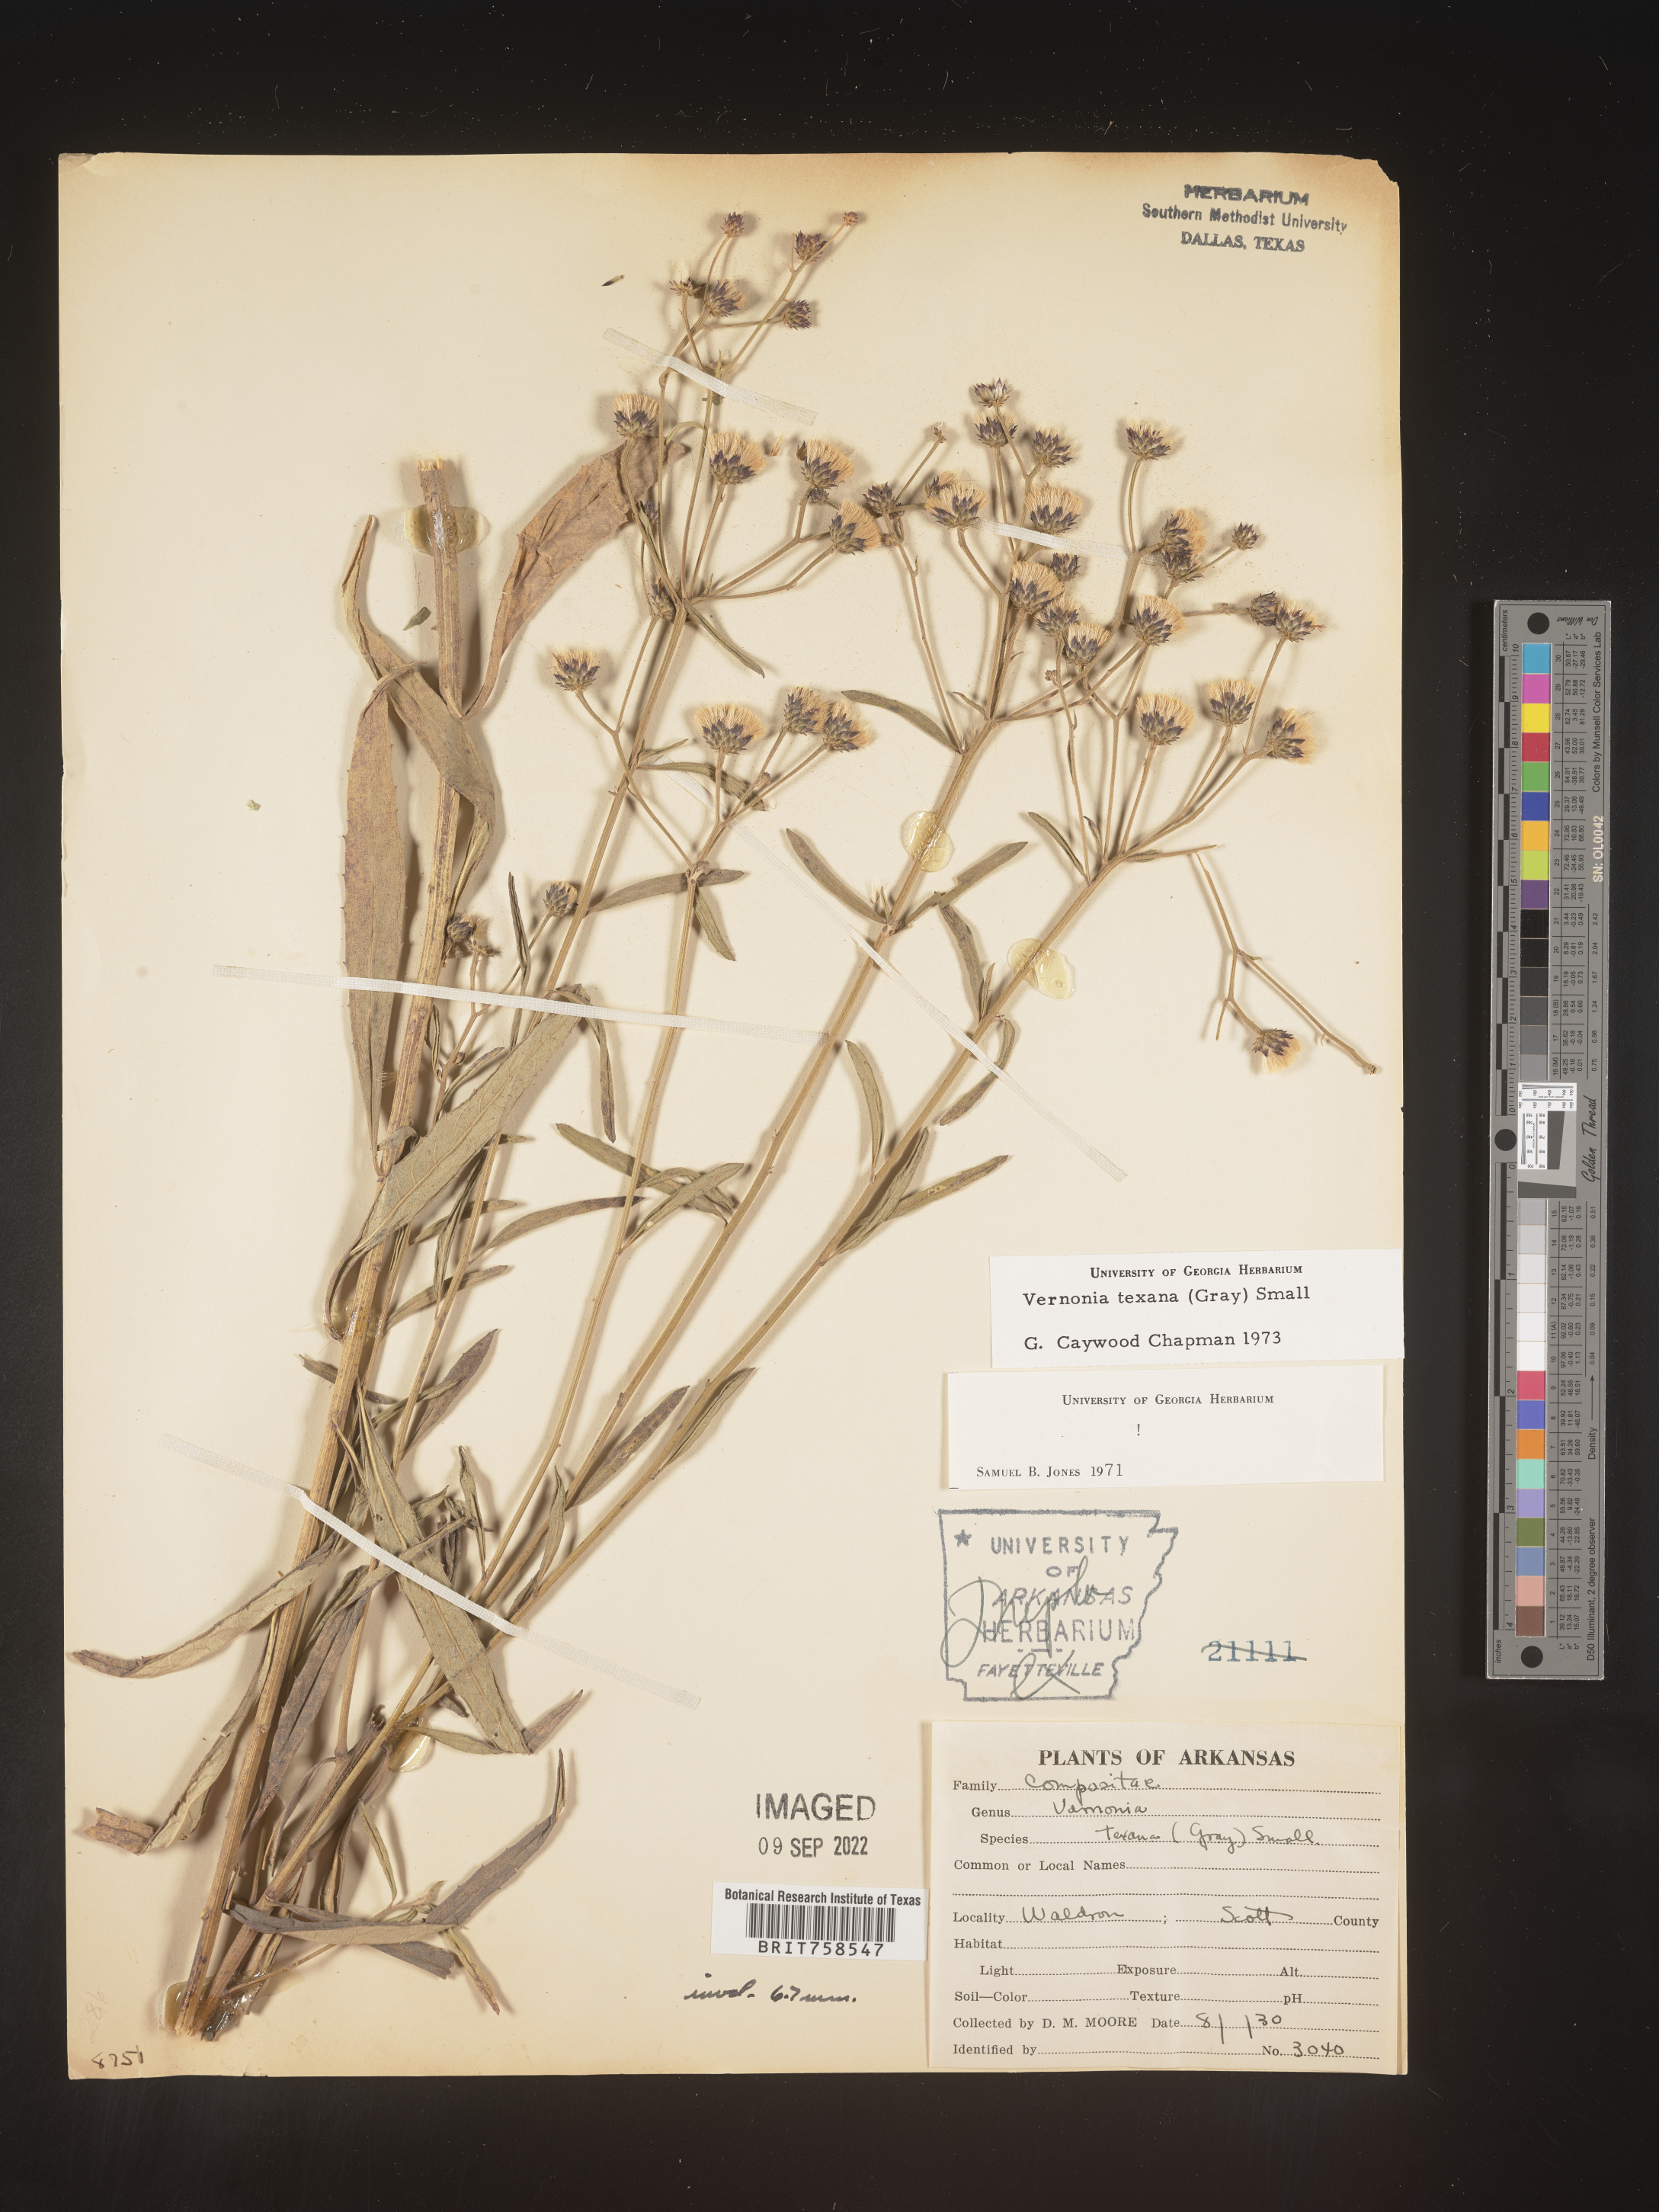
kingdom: Plantae
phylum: Tracheophyta
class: Magnoliopsida
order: Asterales
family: Asteraceae
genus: Vernonia
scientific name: Vernonia texana
